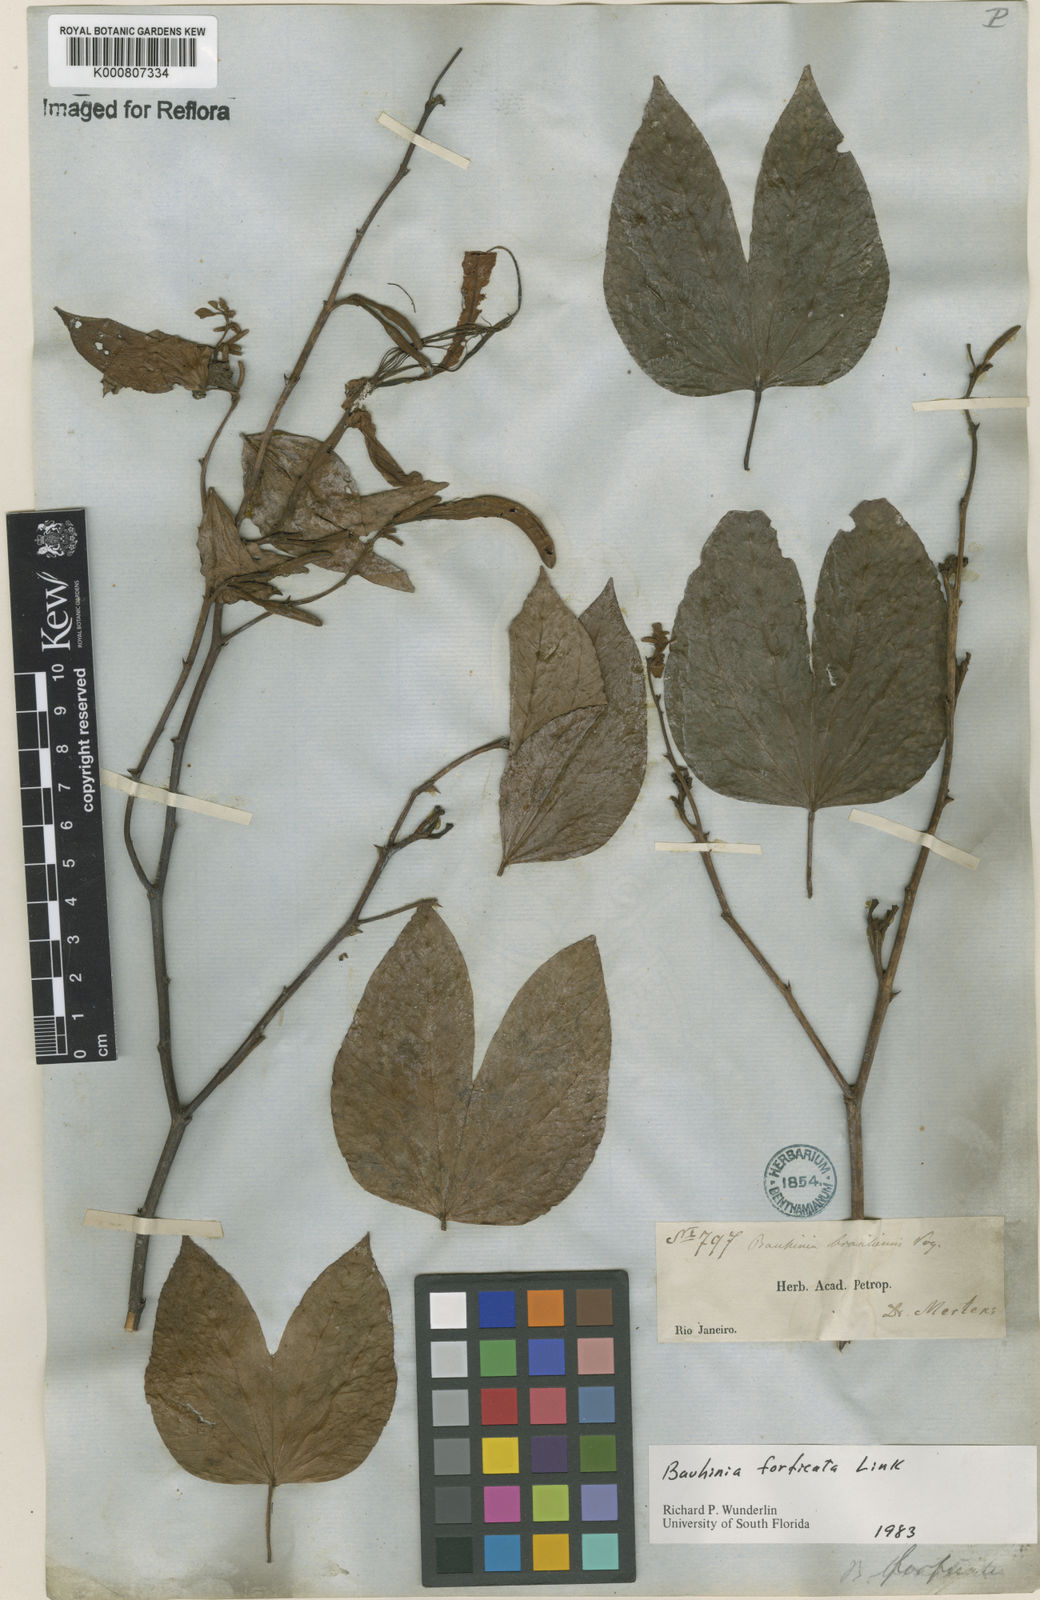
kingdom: Plantae
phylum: Tracheophyta
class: Magnoliopsida
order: Fabales
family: Fabaceae
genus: Bauhinia
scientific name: Bauhinia forficata
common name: Orchid tree
